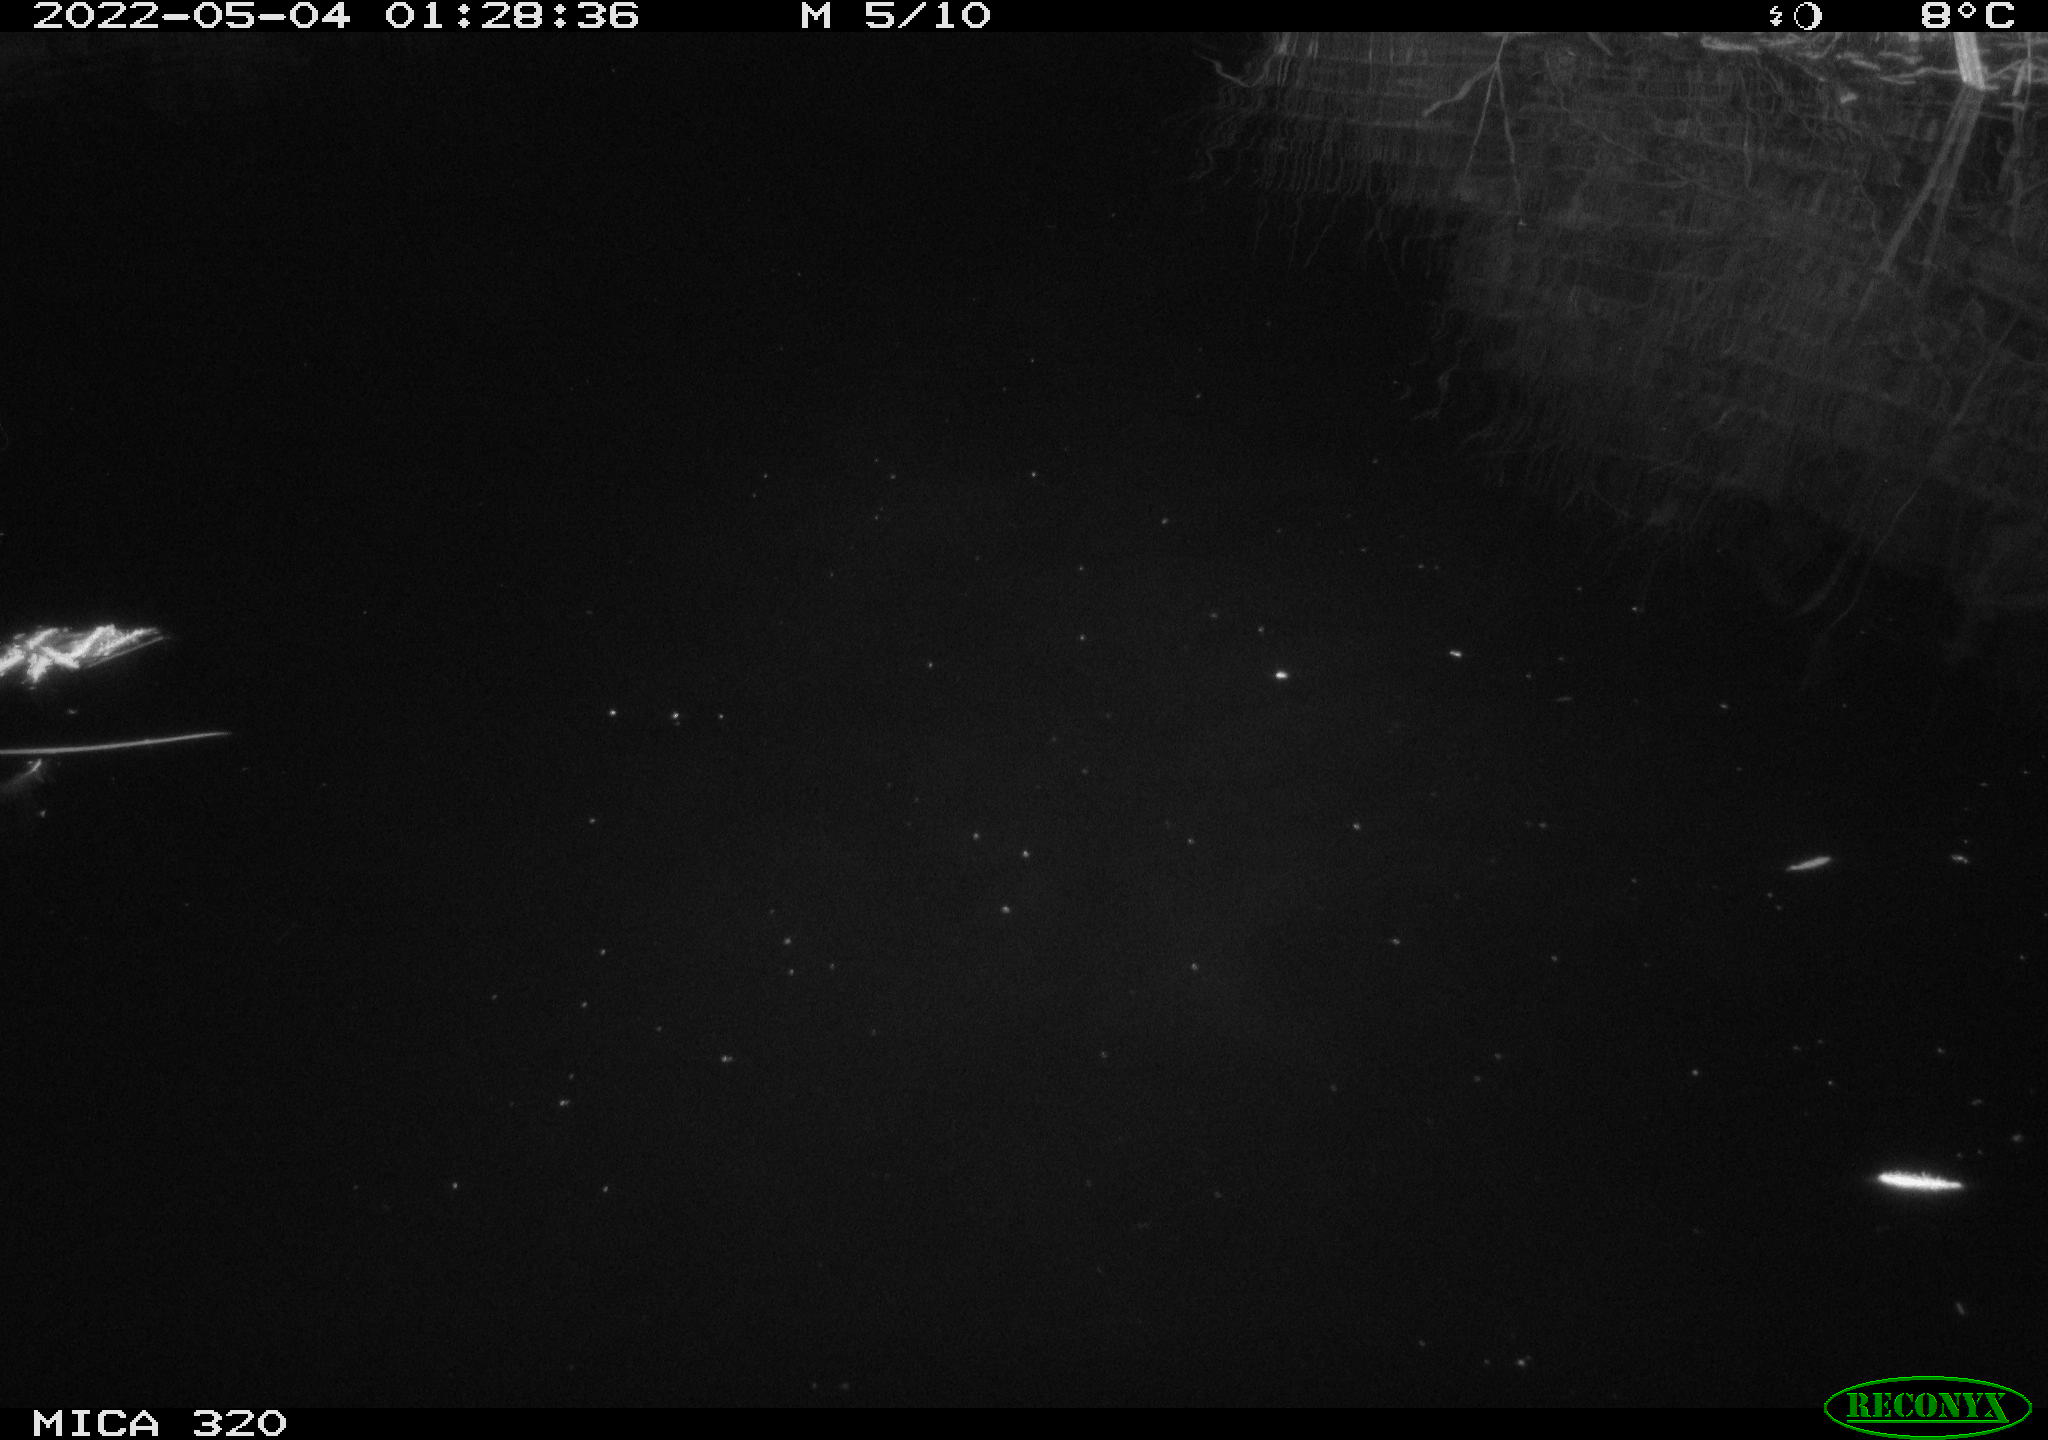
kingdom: Animalia
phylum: Chordata
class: Aves
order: Anseriformes
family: Anatidae
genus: Anas
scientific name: Anas platyrhynchos
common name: Mallard
